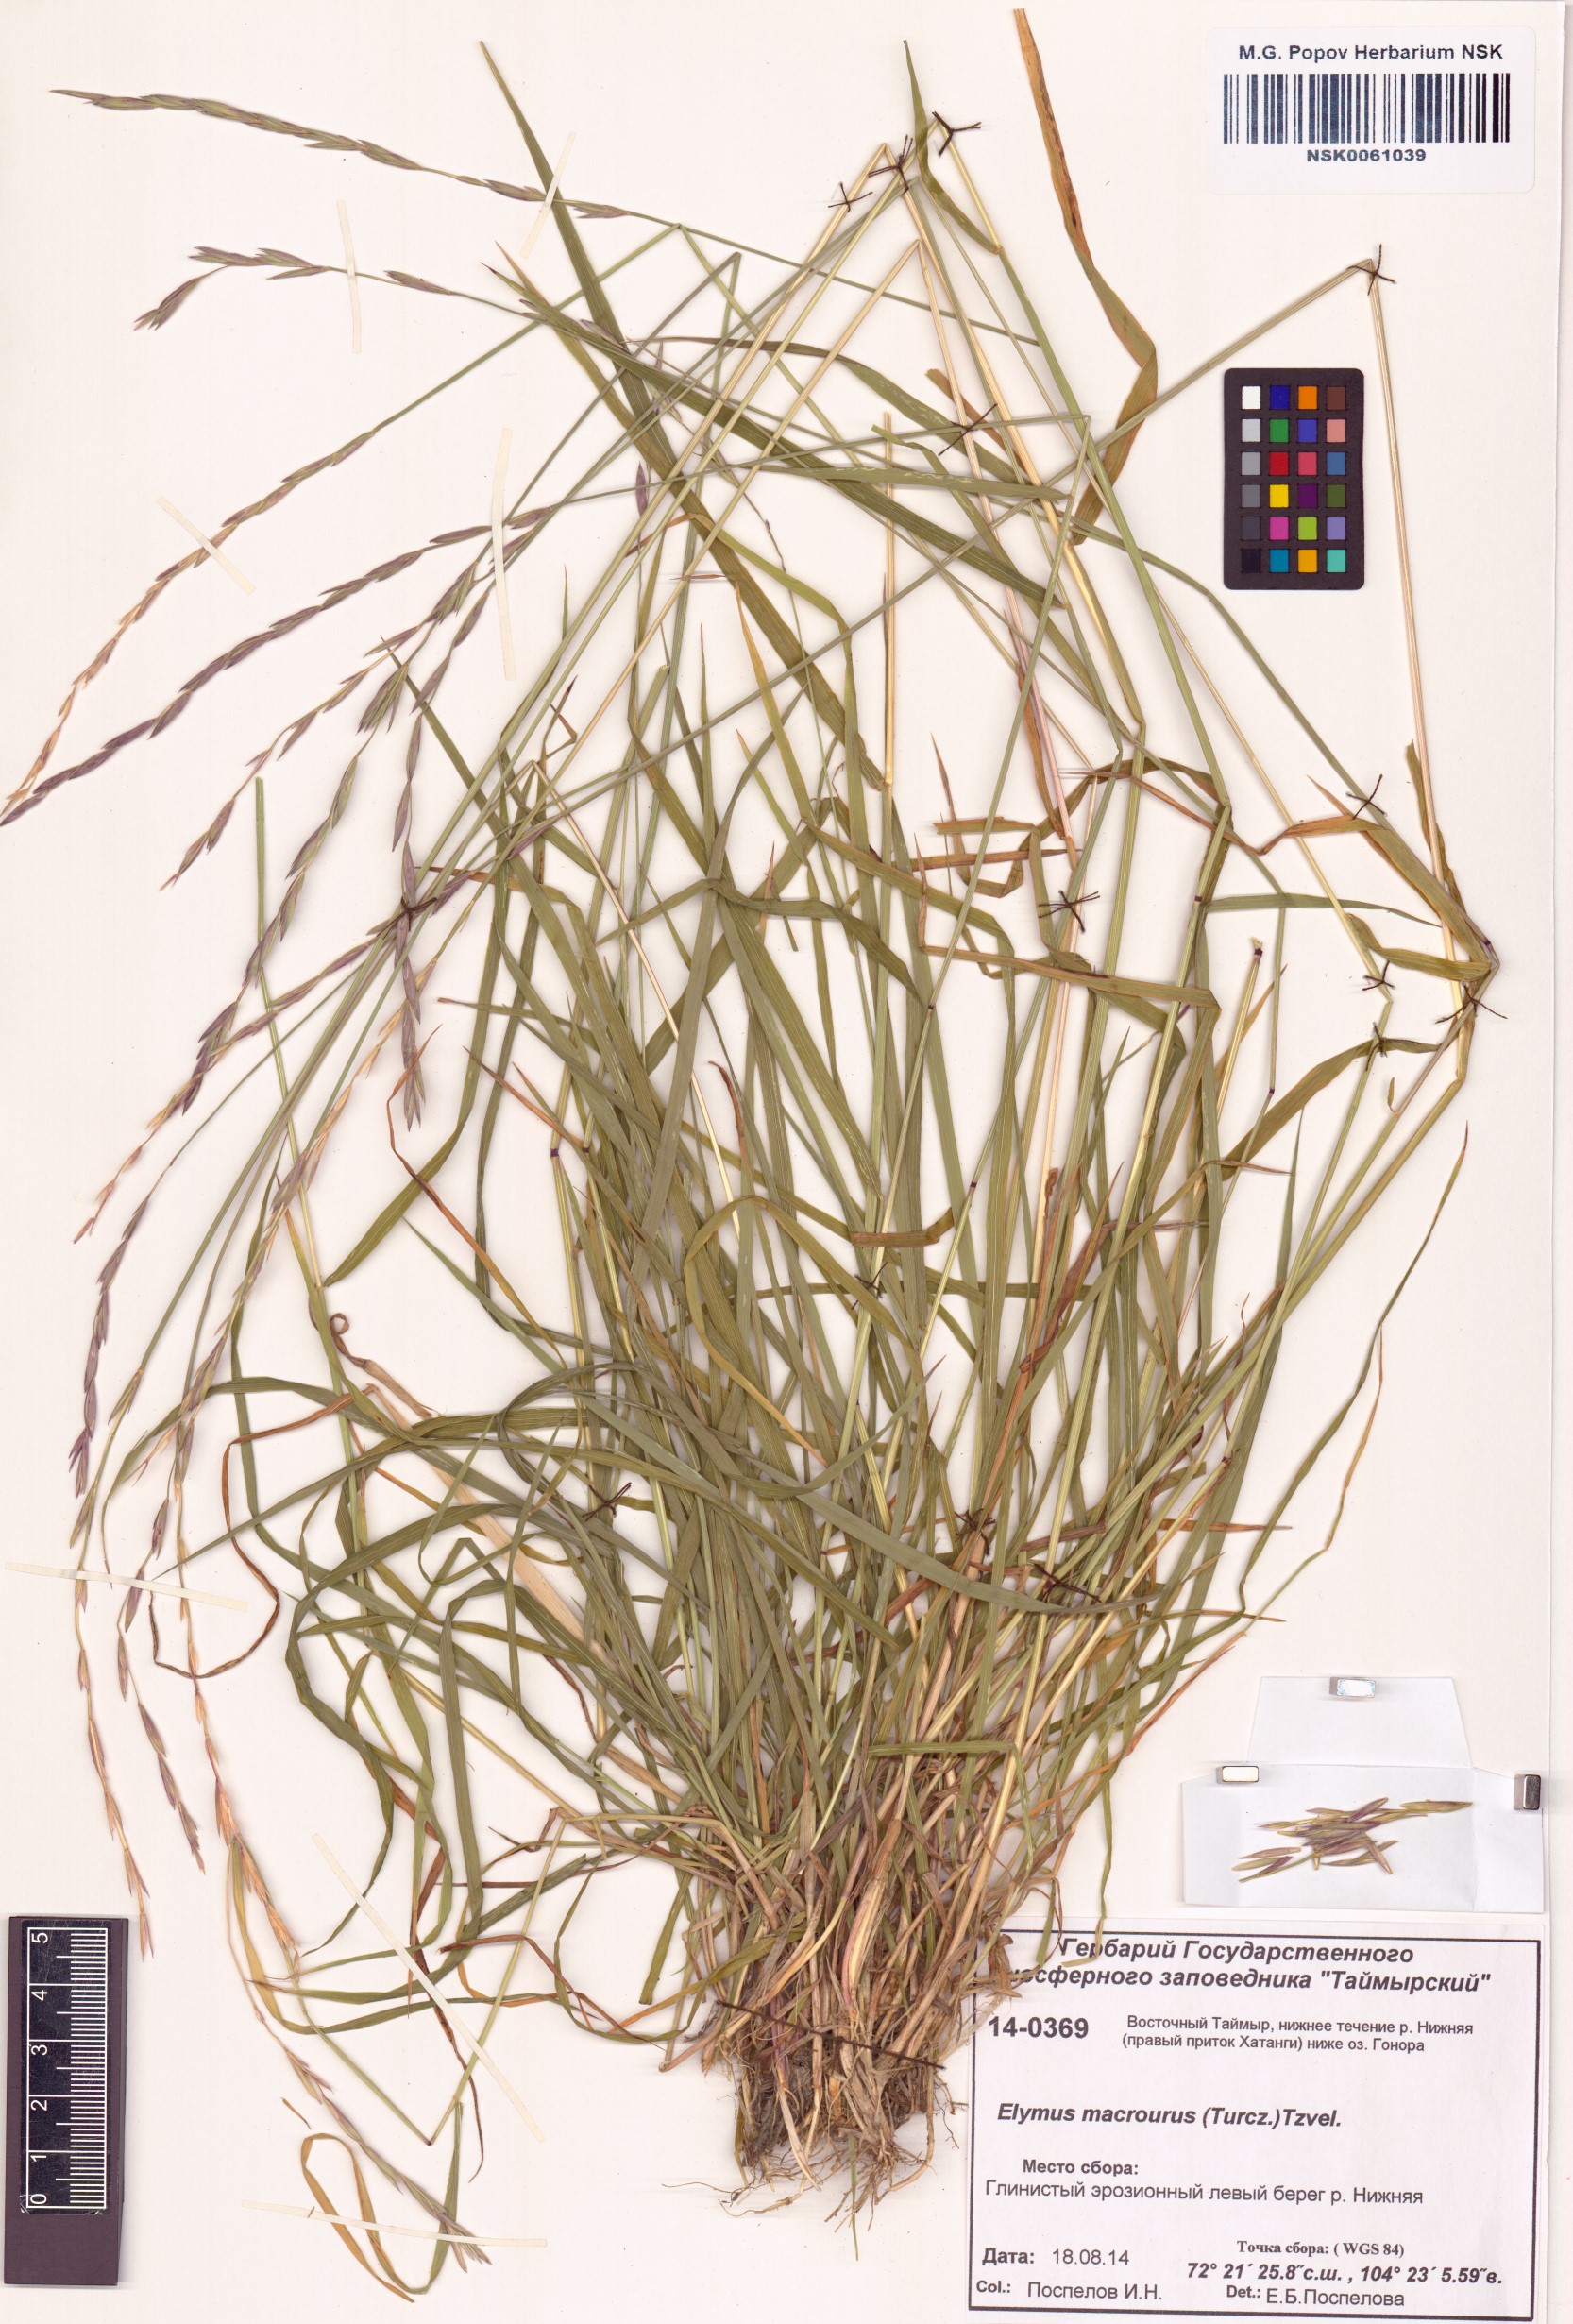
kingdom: Plantae
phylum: Tracheophyta
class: Liliopsida
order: Poales
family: Poaceae
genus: Elymus
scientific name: Elymus macrourus
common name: Northern wheatgrass
